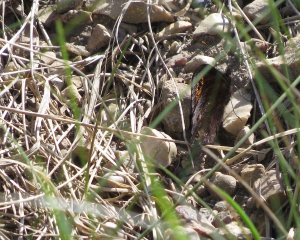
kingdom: Animalia
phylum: Arthropoda
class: Insecta
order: Lepidoptera
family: Nymphalidae
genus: Erebia
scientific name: Erebia epipsodea
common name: Common Alpine
